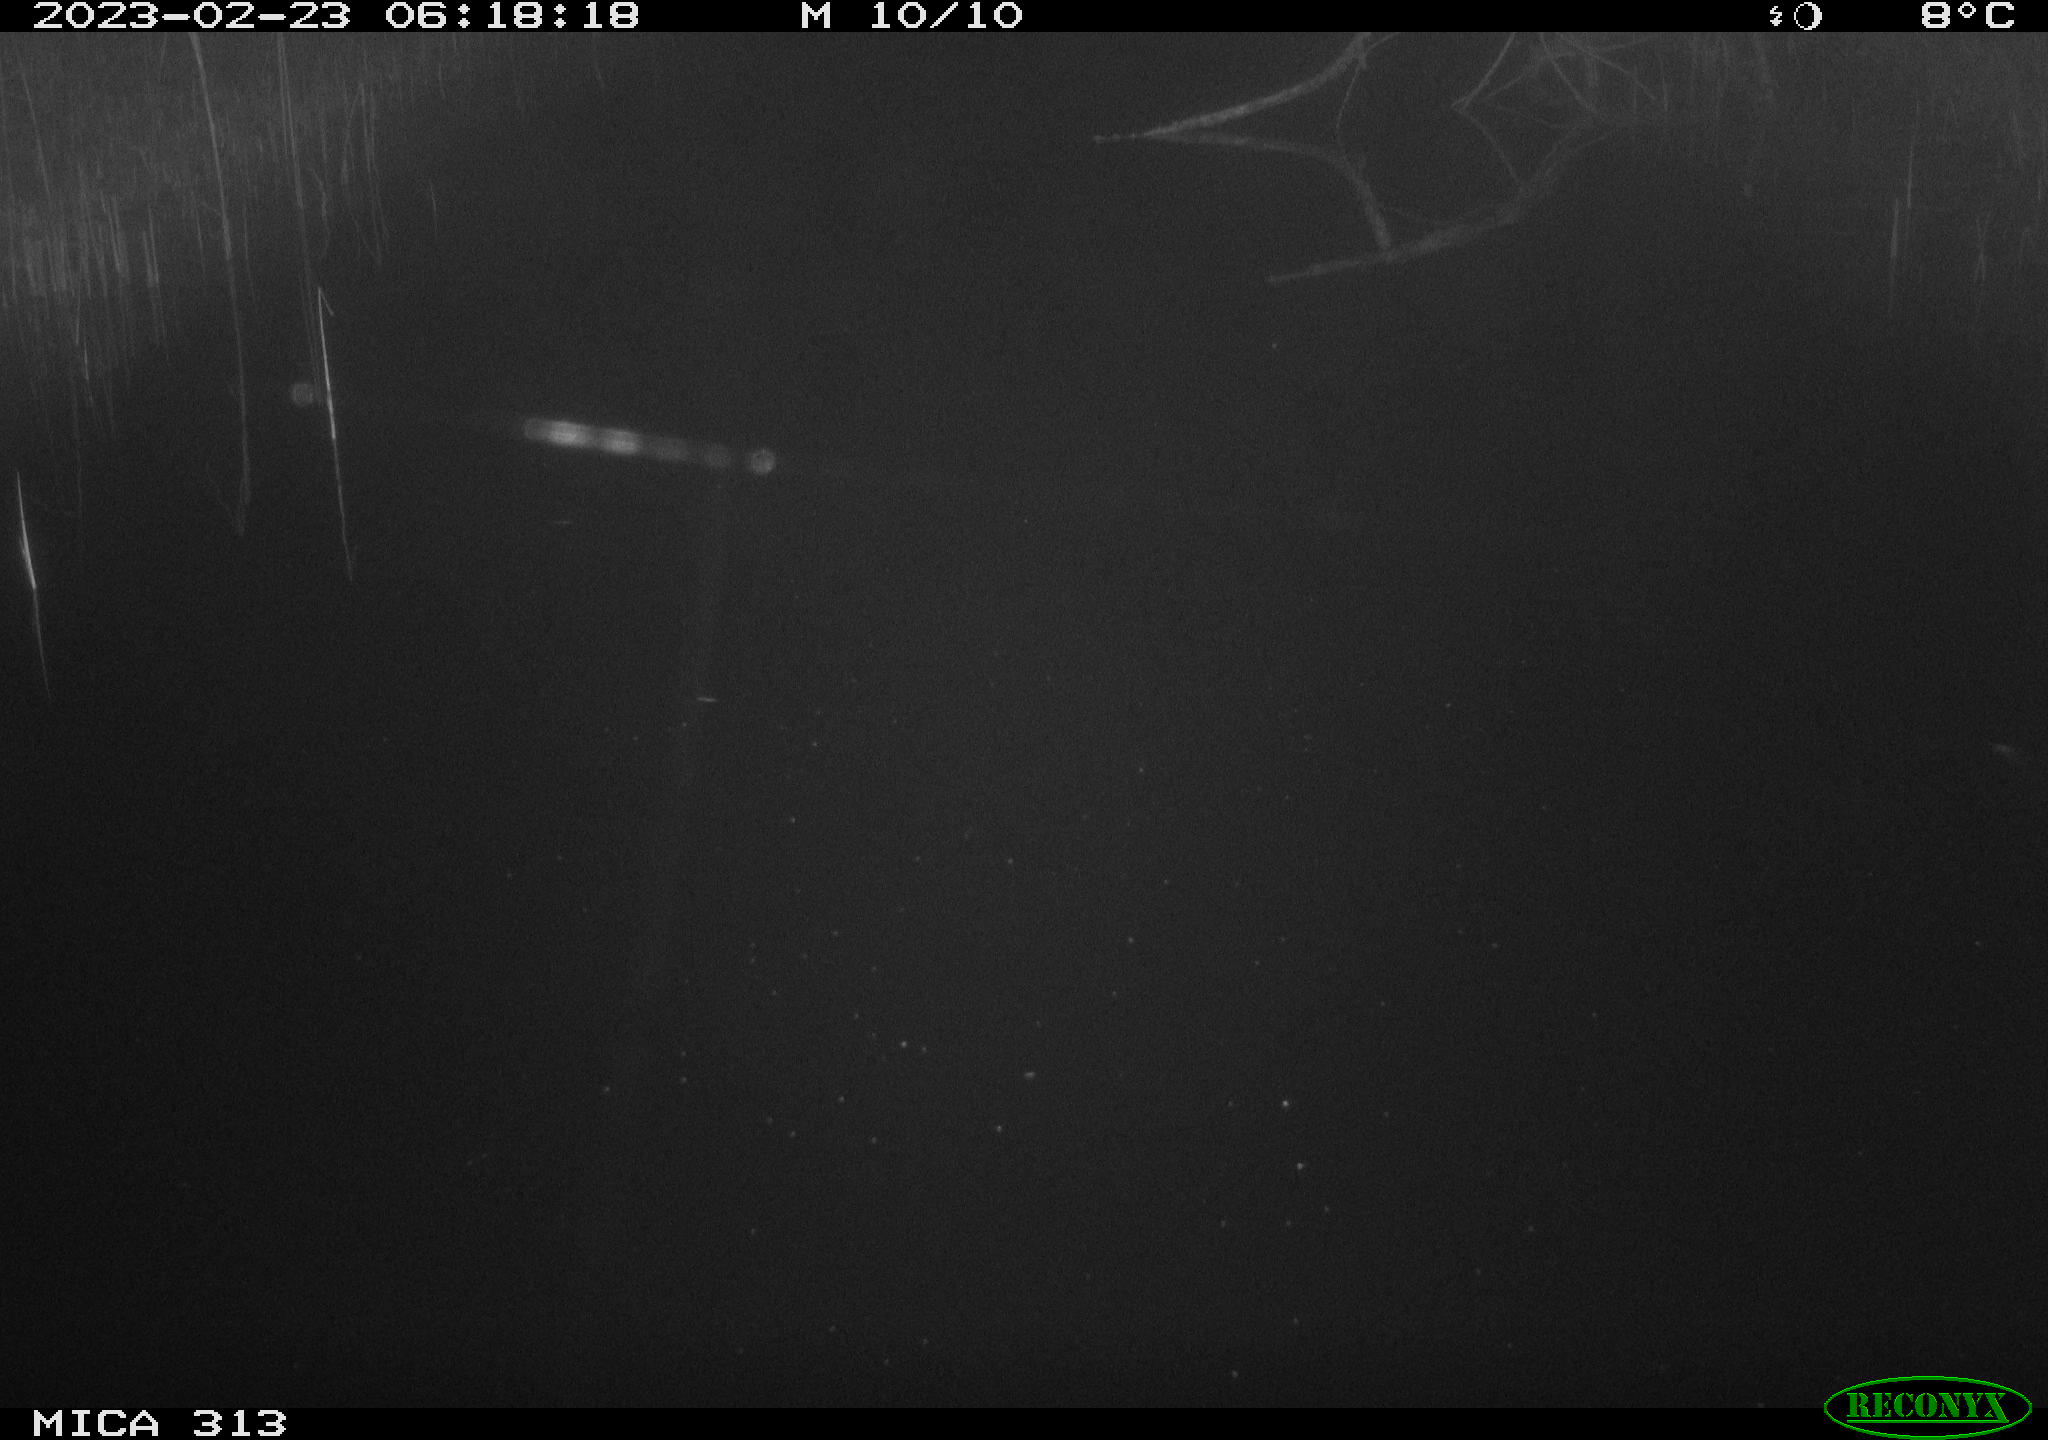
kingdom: Animalia
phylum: Chordata
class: Mammalia
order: Rodentia
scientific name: Rodentia
